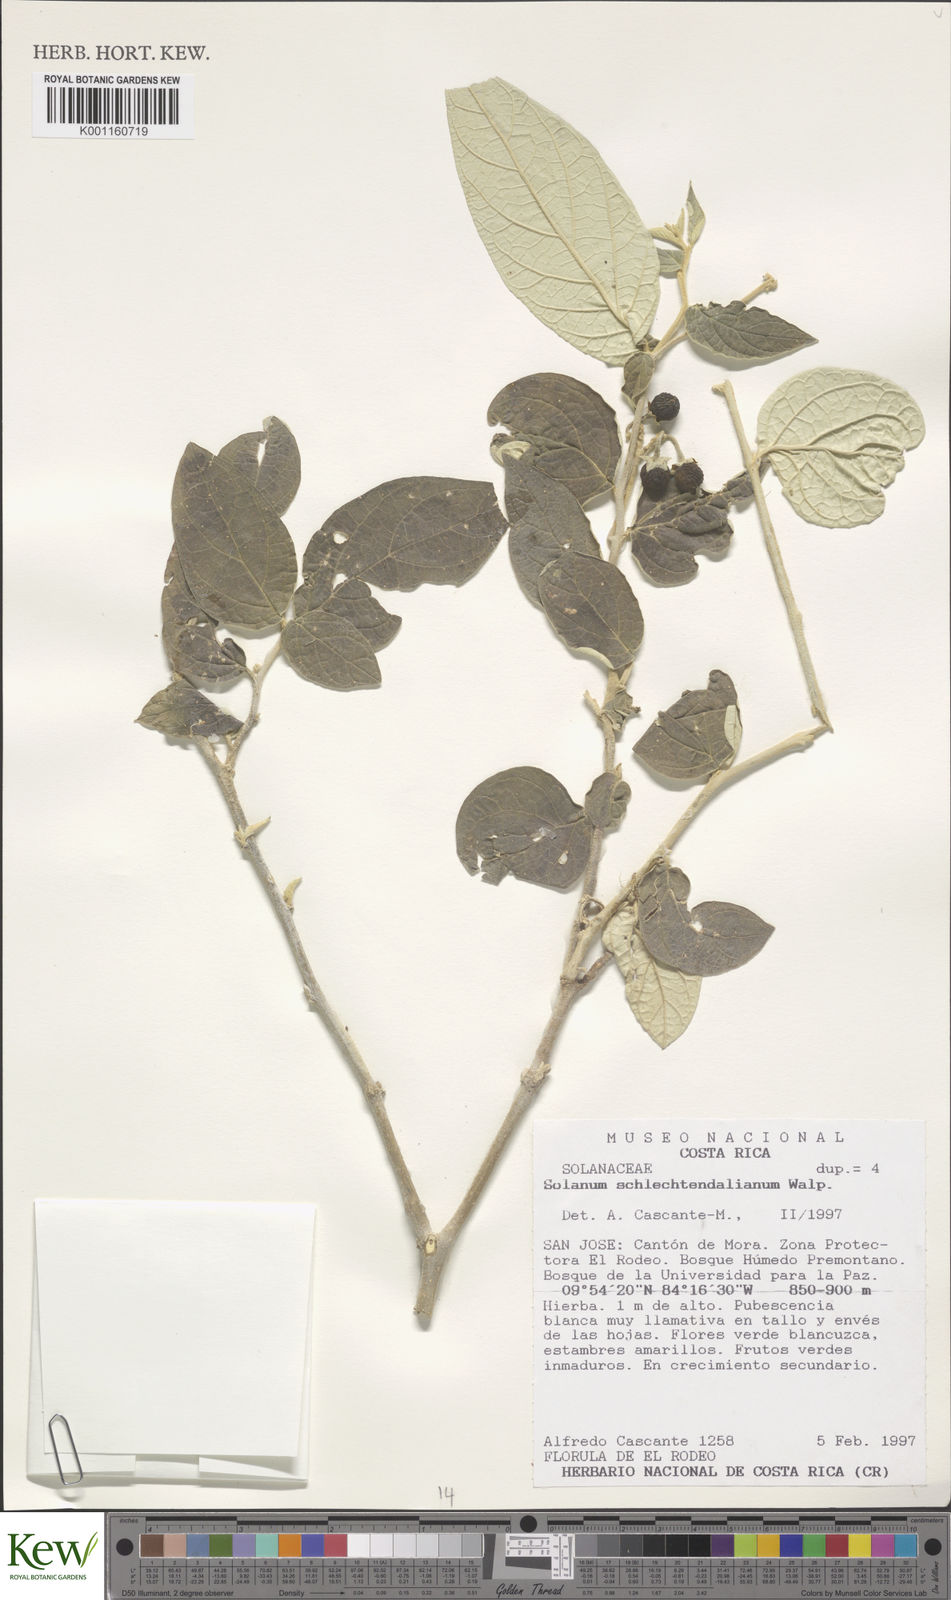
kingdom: Plantae
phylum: Tracheophyta
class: Magnoliopsida
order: Solanales
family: Solanaceae
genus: Solanum
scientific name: Solanum schlechtendalianum
